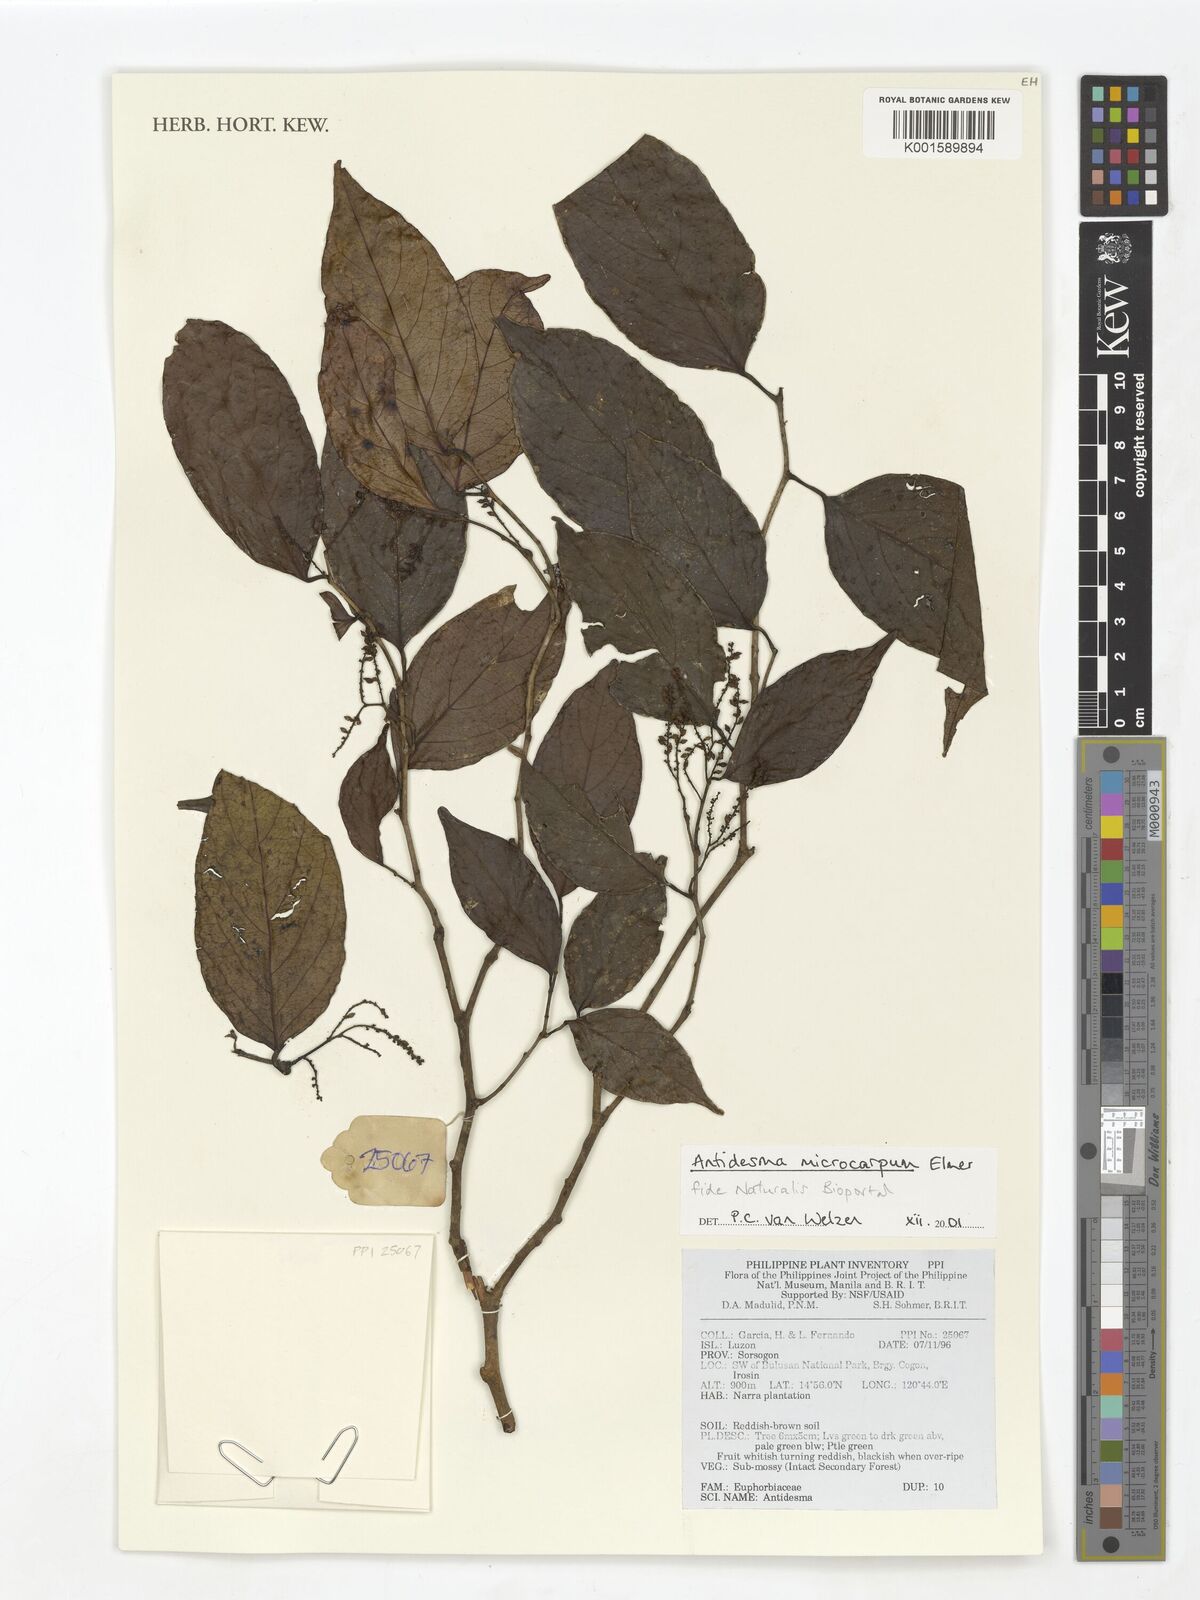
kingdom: Plantae
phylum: Tracheophyta
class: Magnoliopsida
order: Malpighiales
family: Phyllanthaceae
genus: Antidesma
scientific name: Antidesma microcarpum
